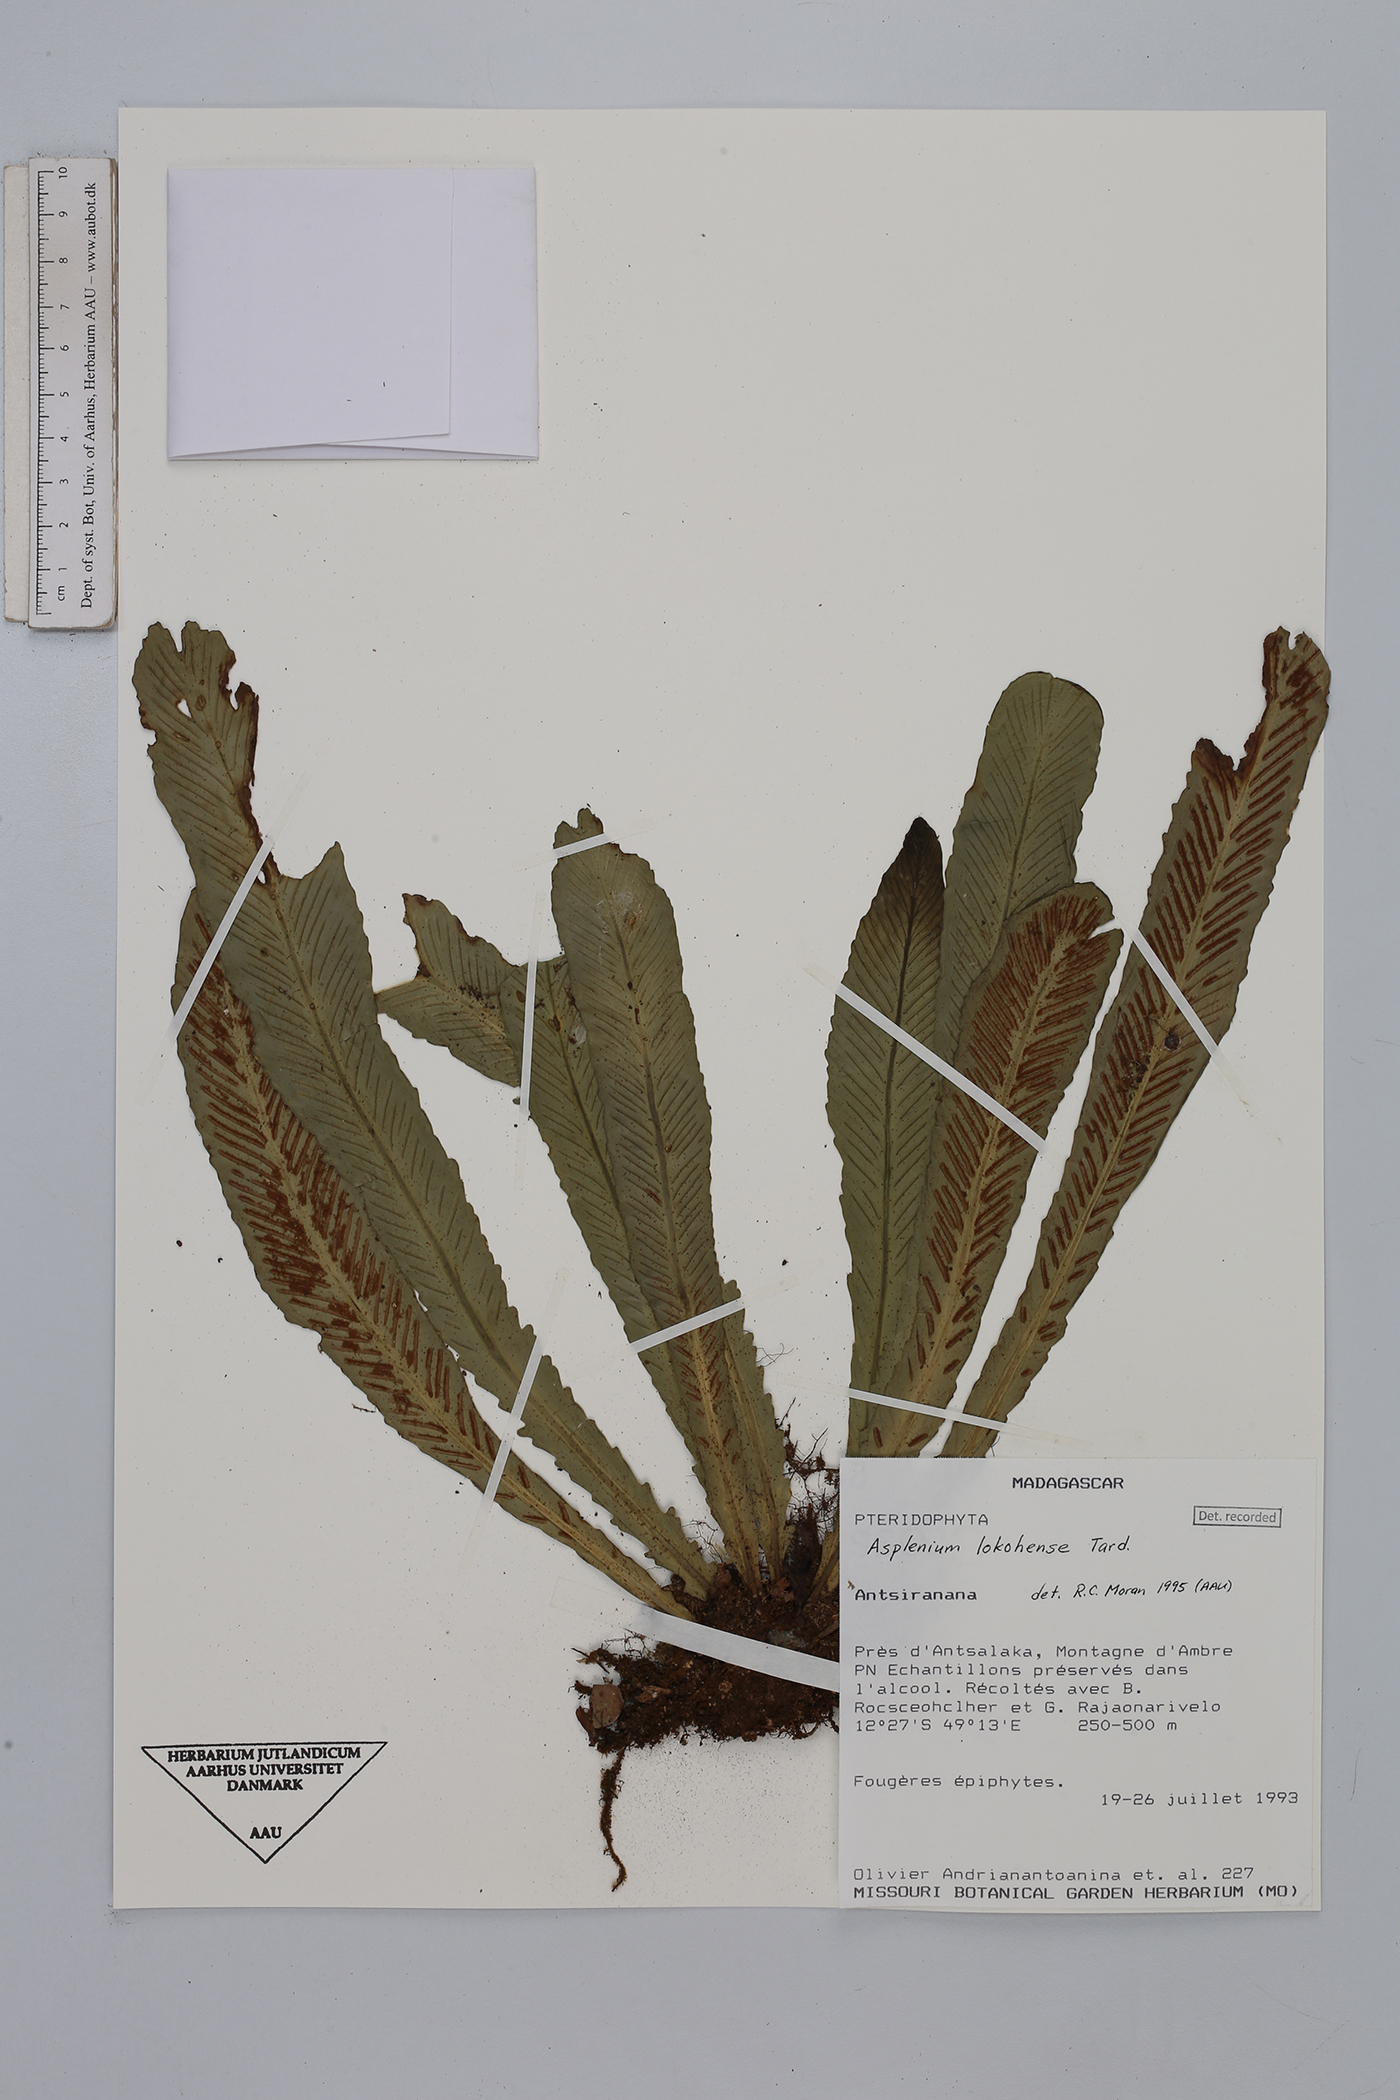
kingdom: Plantae
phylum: Tracheophyta
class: Polypodiopsida
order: Polypodiales
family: Aspleniaceae
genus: Asplenium
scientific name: Asplenium lokohoense
